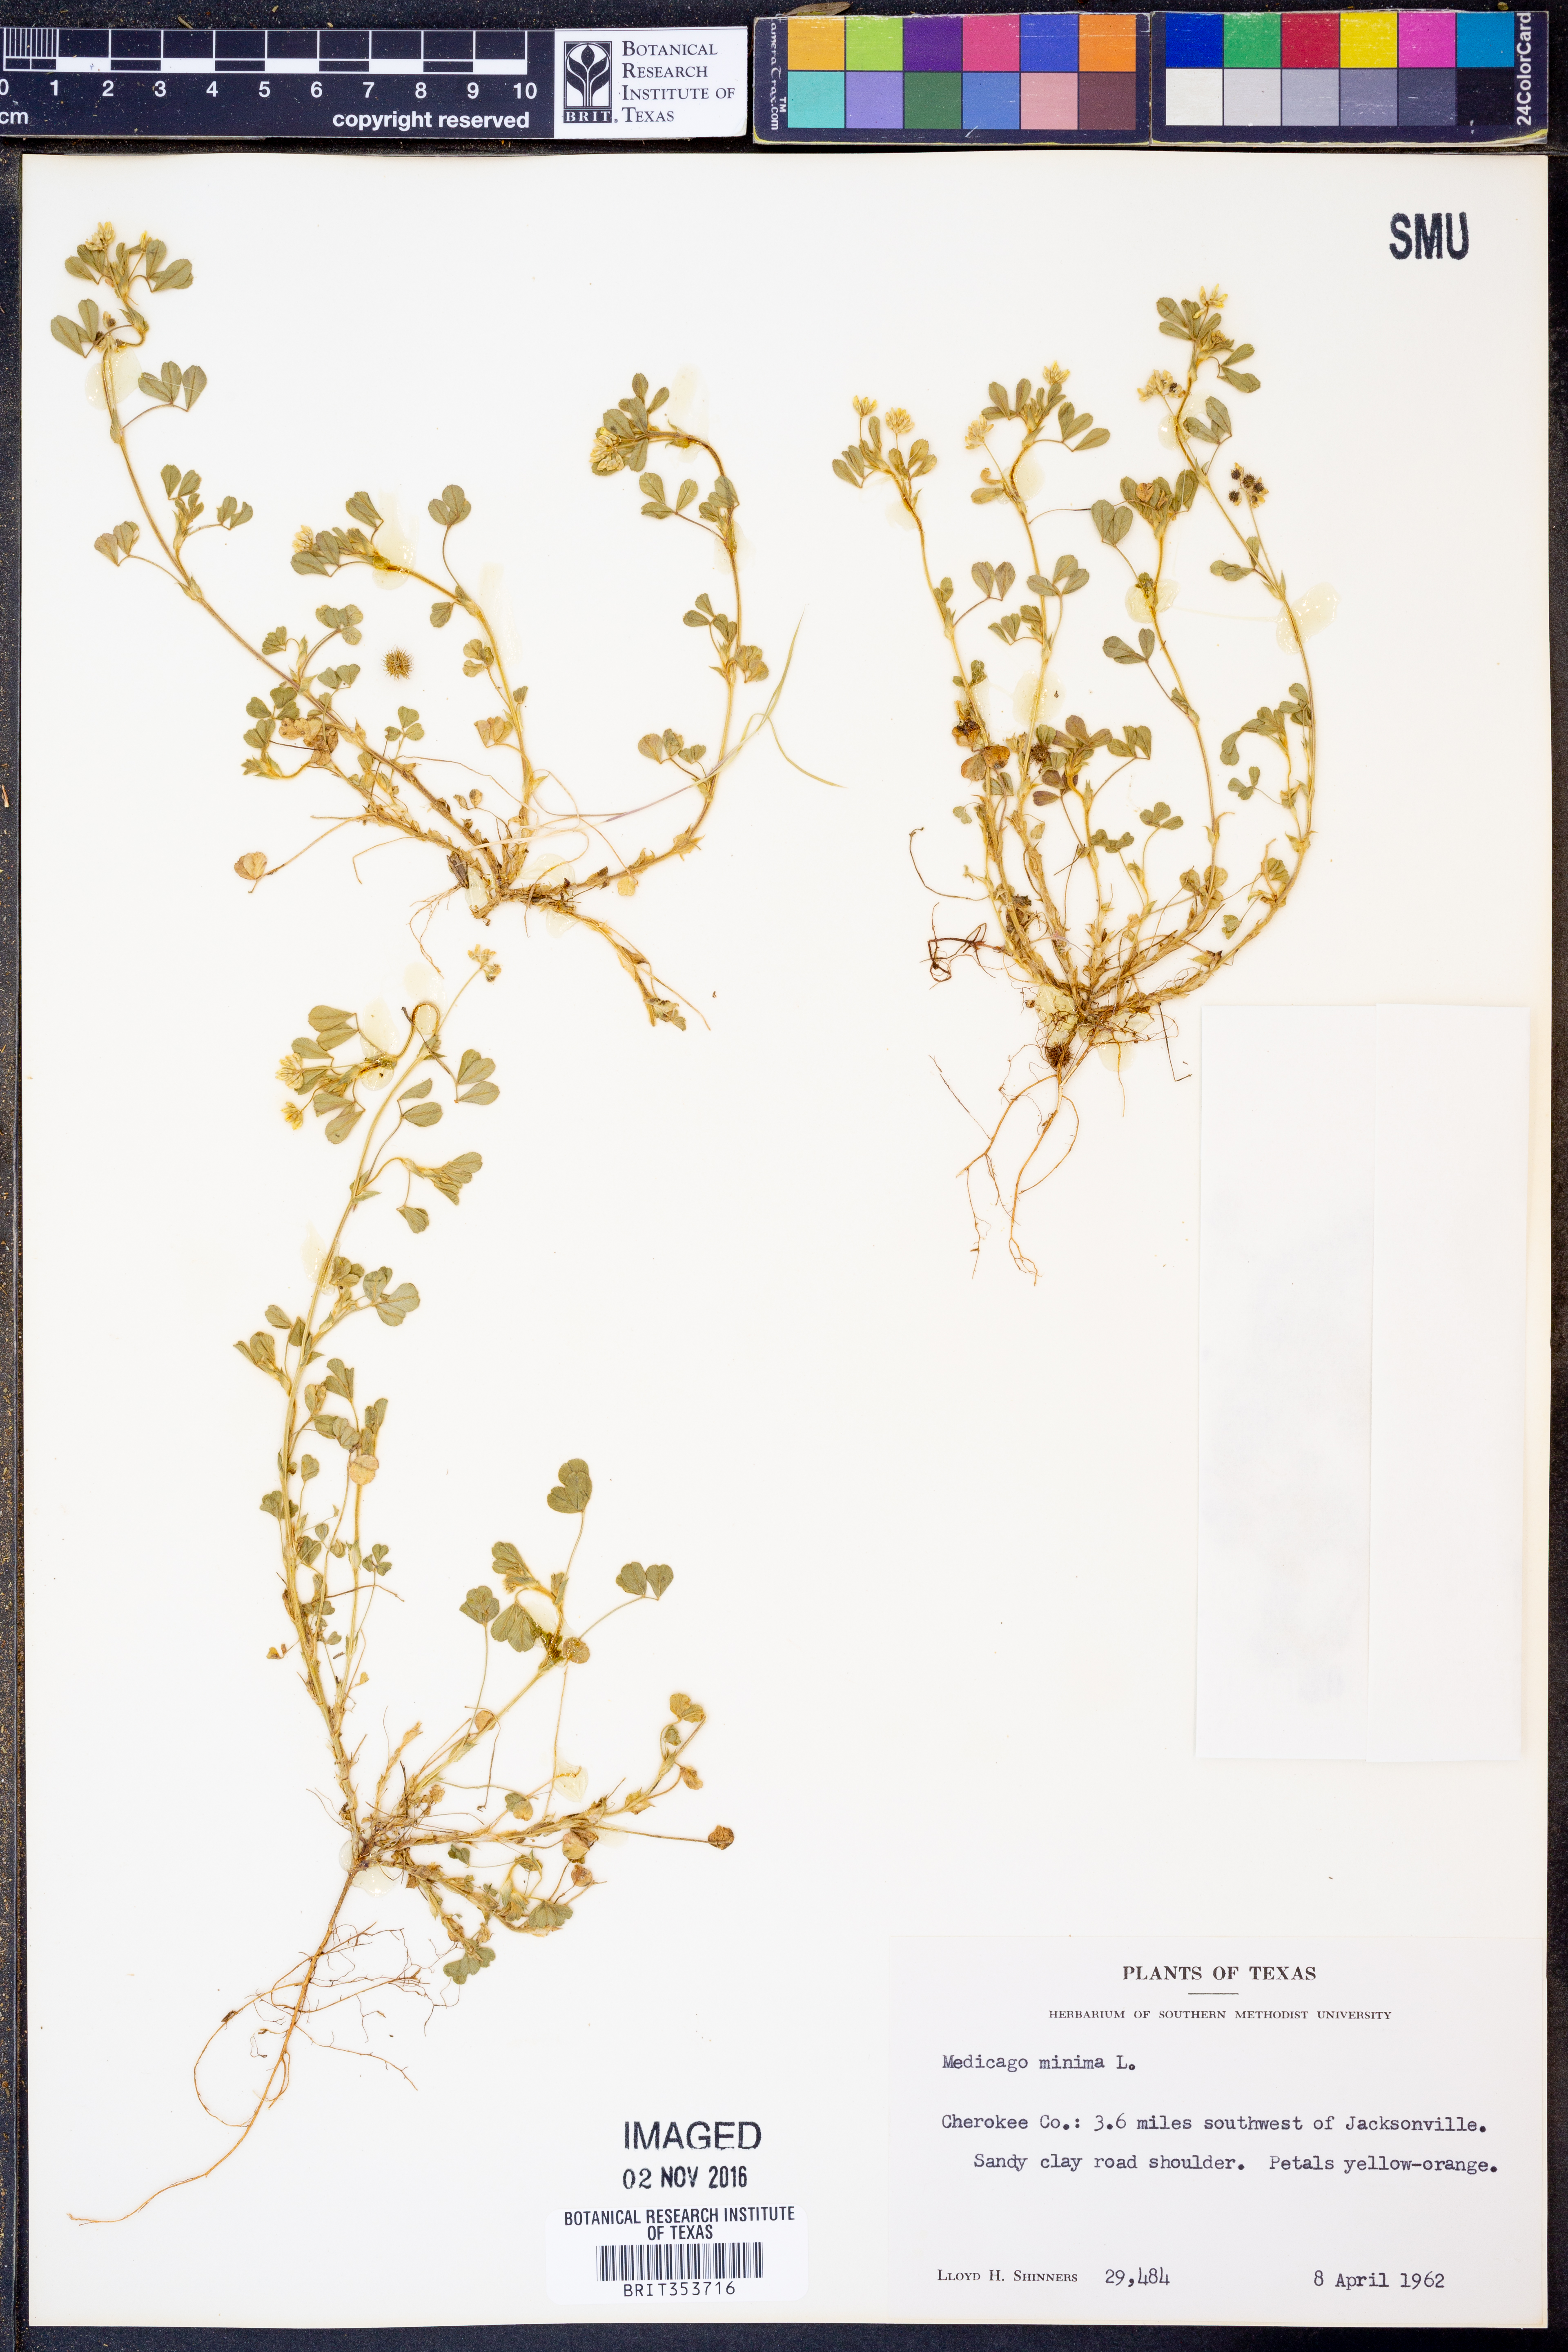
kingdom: Plantae
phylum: Tracheophyta
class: Magnoliopsida
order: Fabales
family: Fabaceae
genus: Medicago
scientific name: Medicago minima
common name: Little bur-clover
